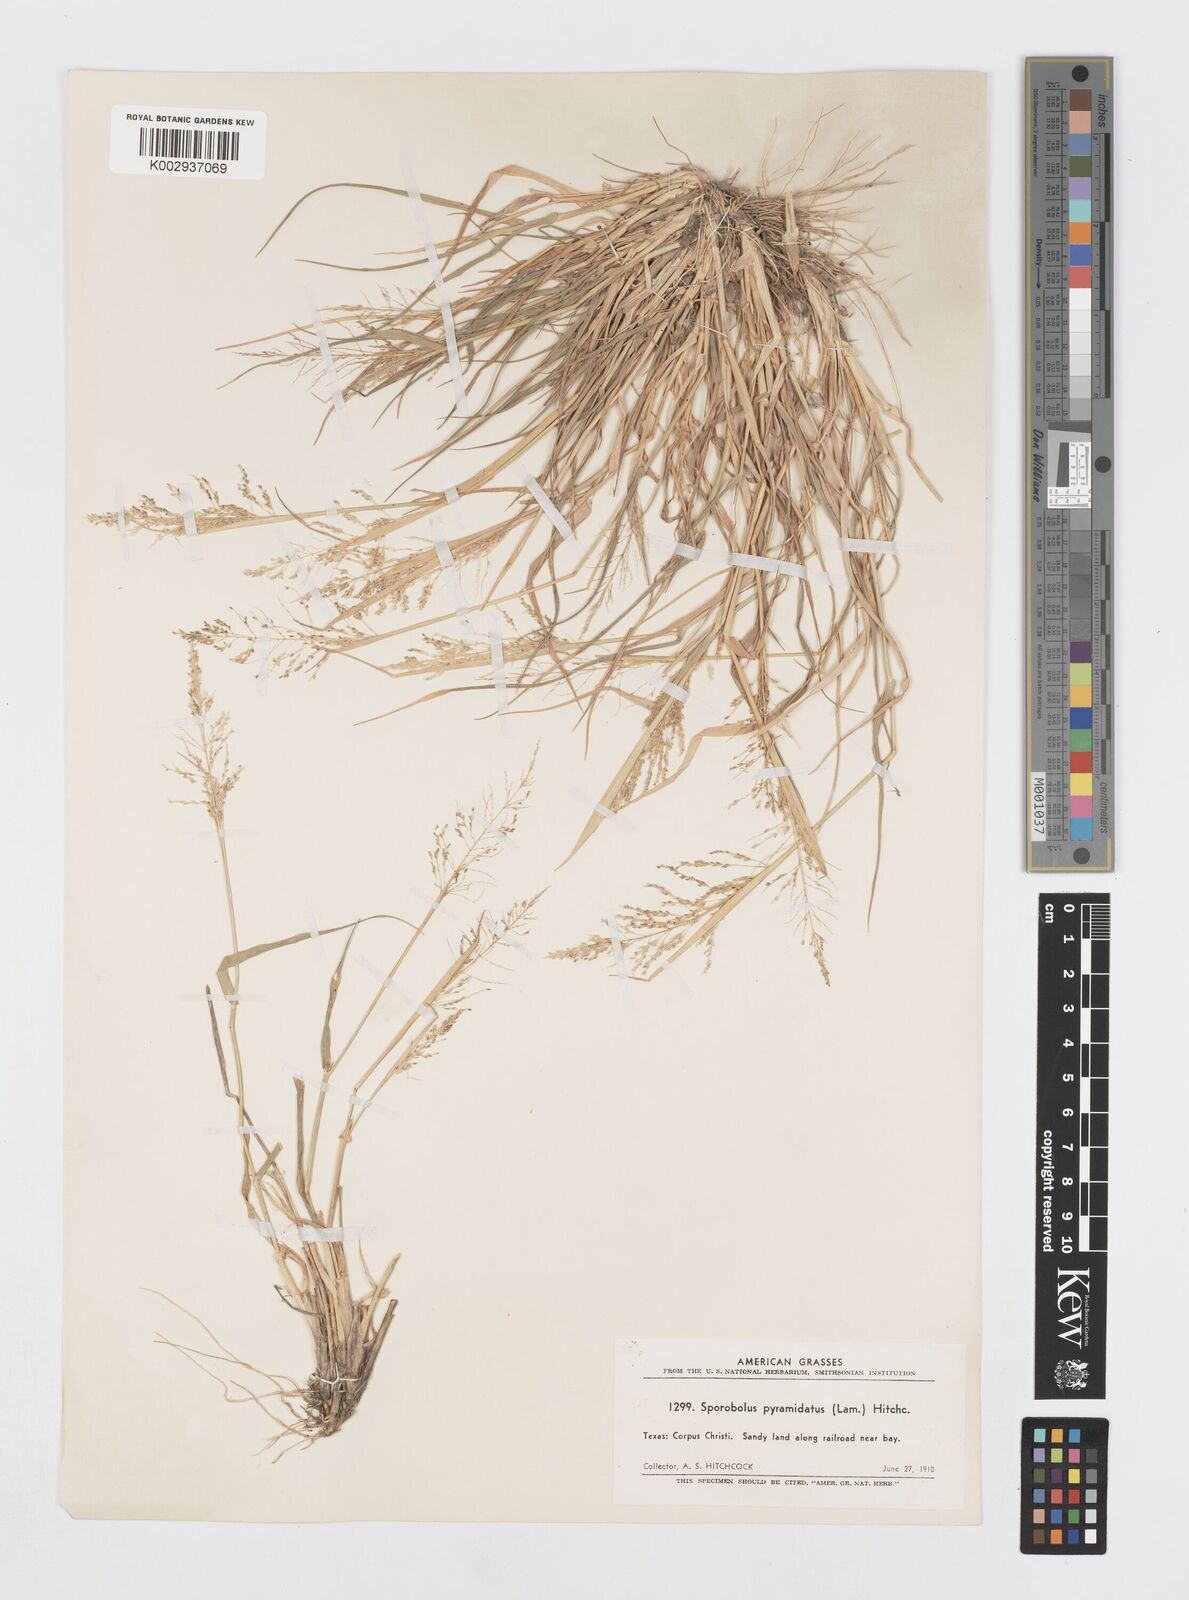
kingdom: Plantae
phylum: Tracheophyta
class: Liliopsida
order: Poales
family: Poaceae
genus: Sporobolus
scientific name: Sporobolus pyramidatus
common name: Whorled dropseed
